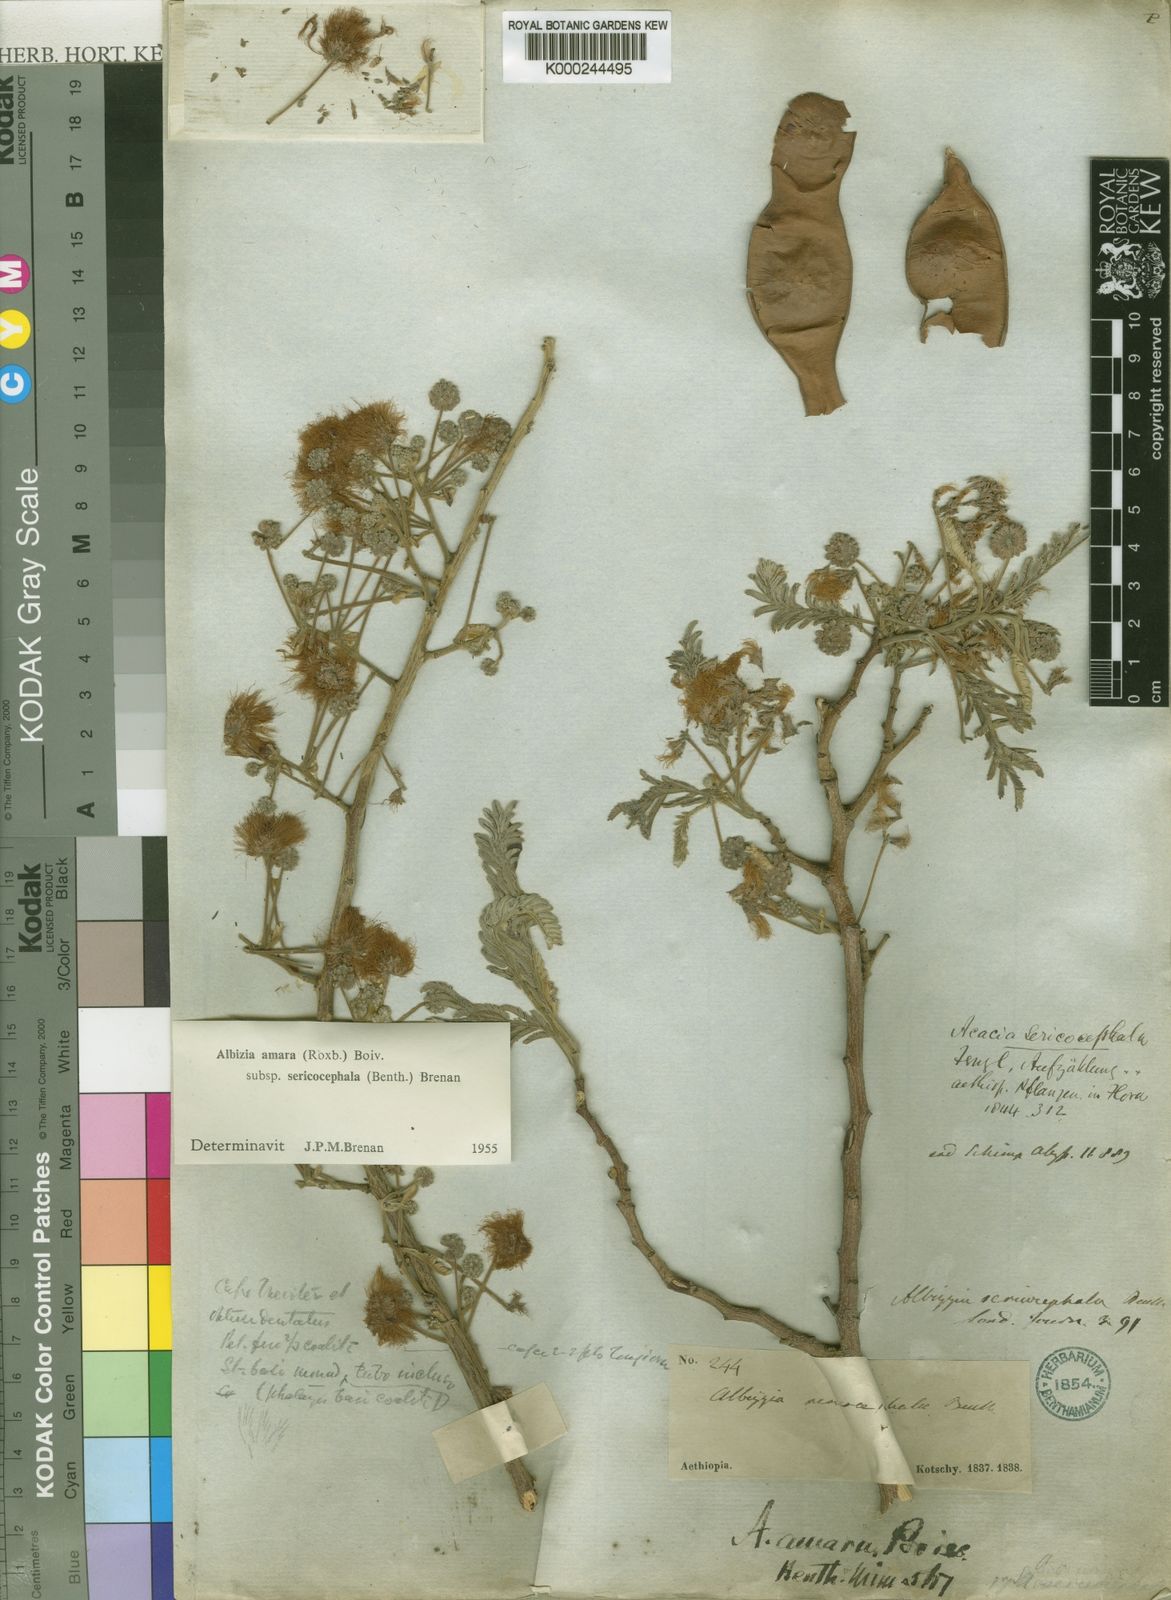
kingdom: Plantae
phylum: Tracheophyta
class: Magnoliopsida
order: Fabales
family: Fabaceae
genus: Albizia
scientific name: Albizia amara
